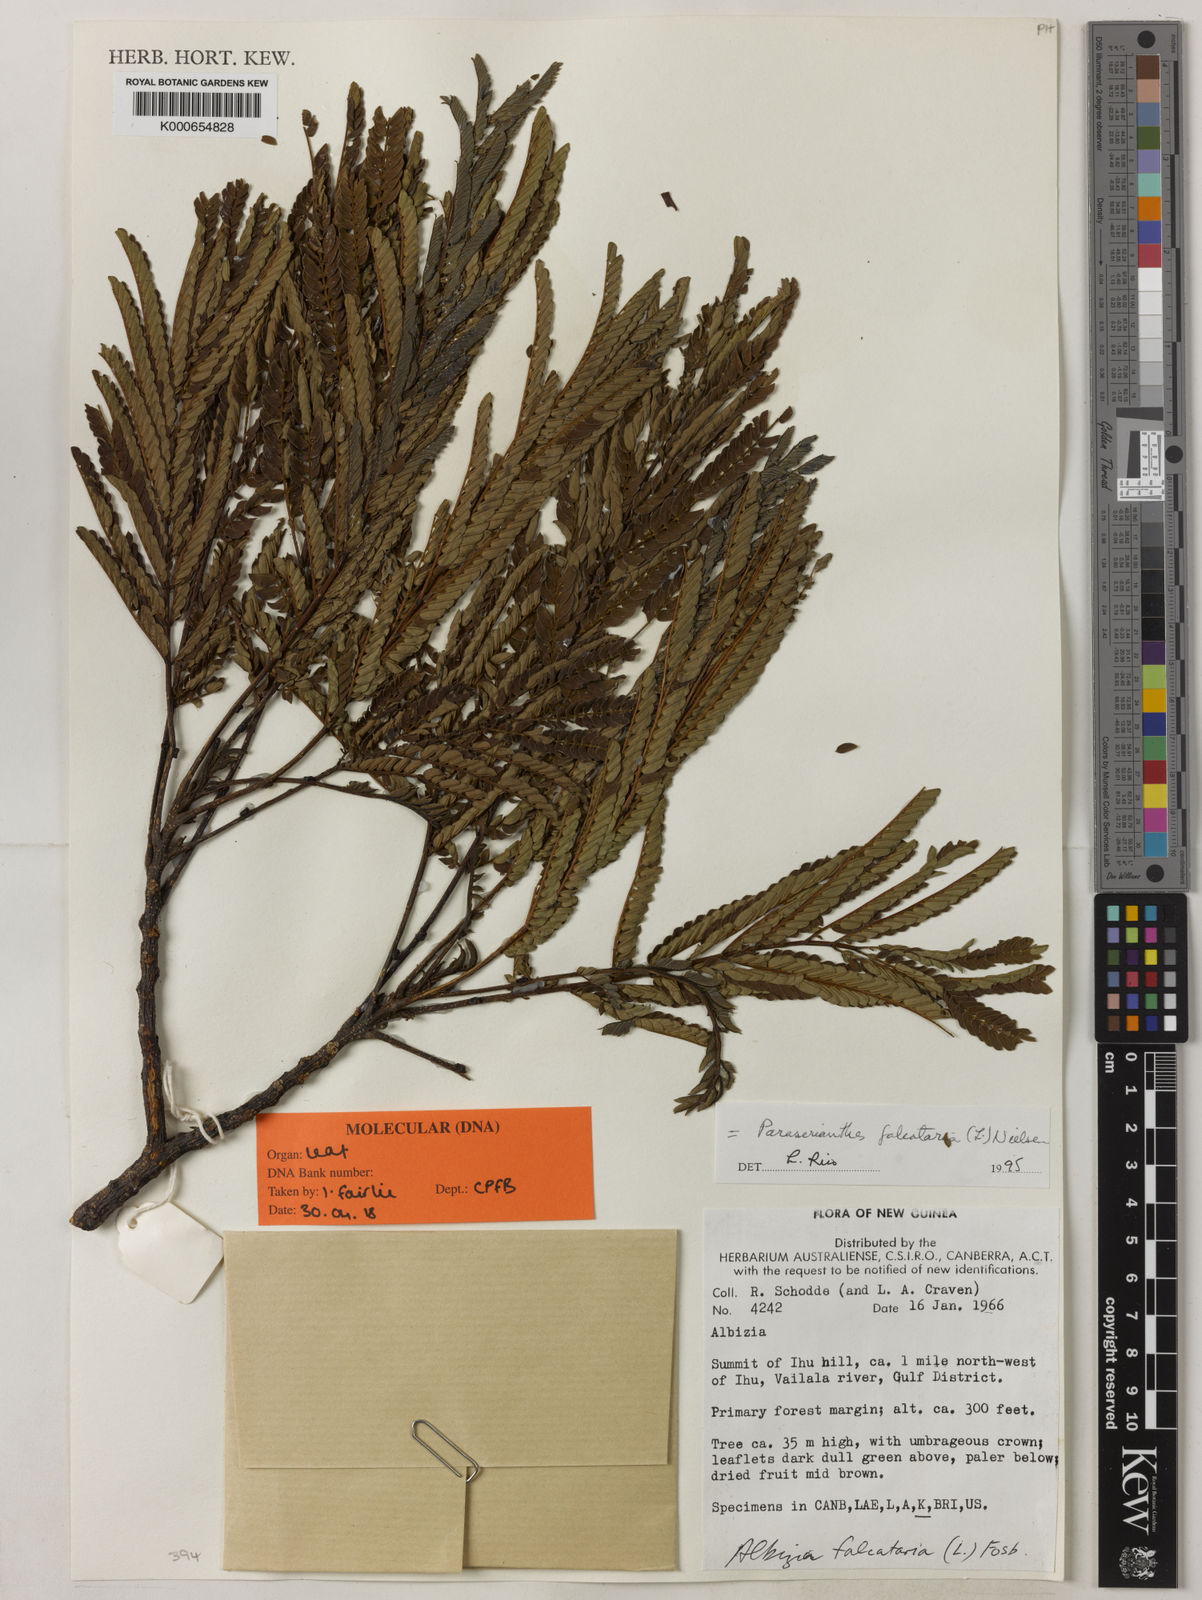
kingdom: Plantae
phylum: Tracheophyta
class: Magnoliopsida
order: Fabales
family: Fabaceae
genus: Falcataria
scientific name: Falcataria falcata
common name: Moluccan albizia
